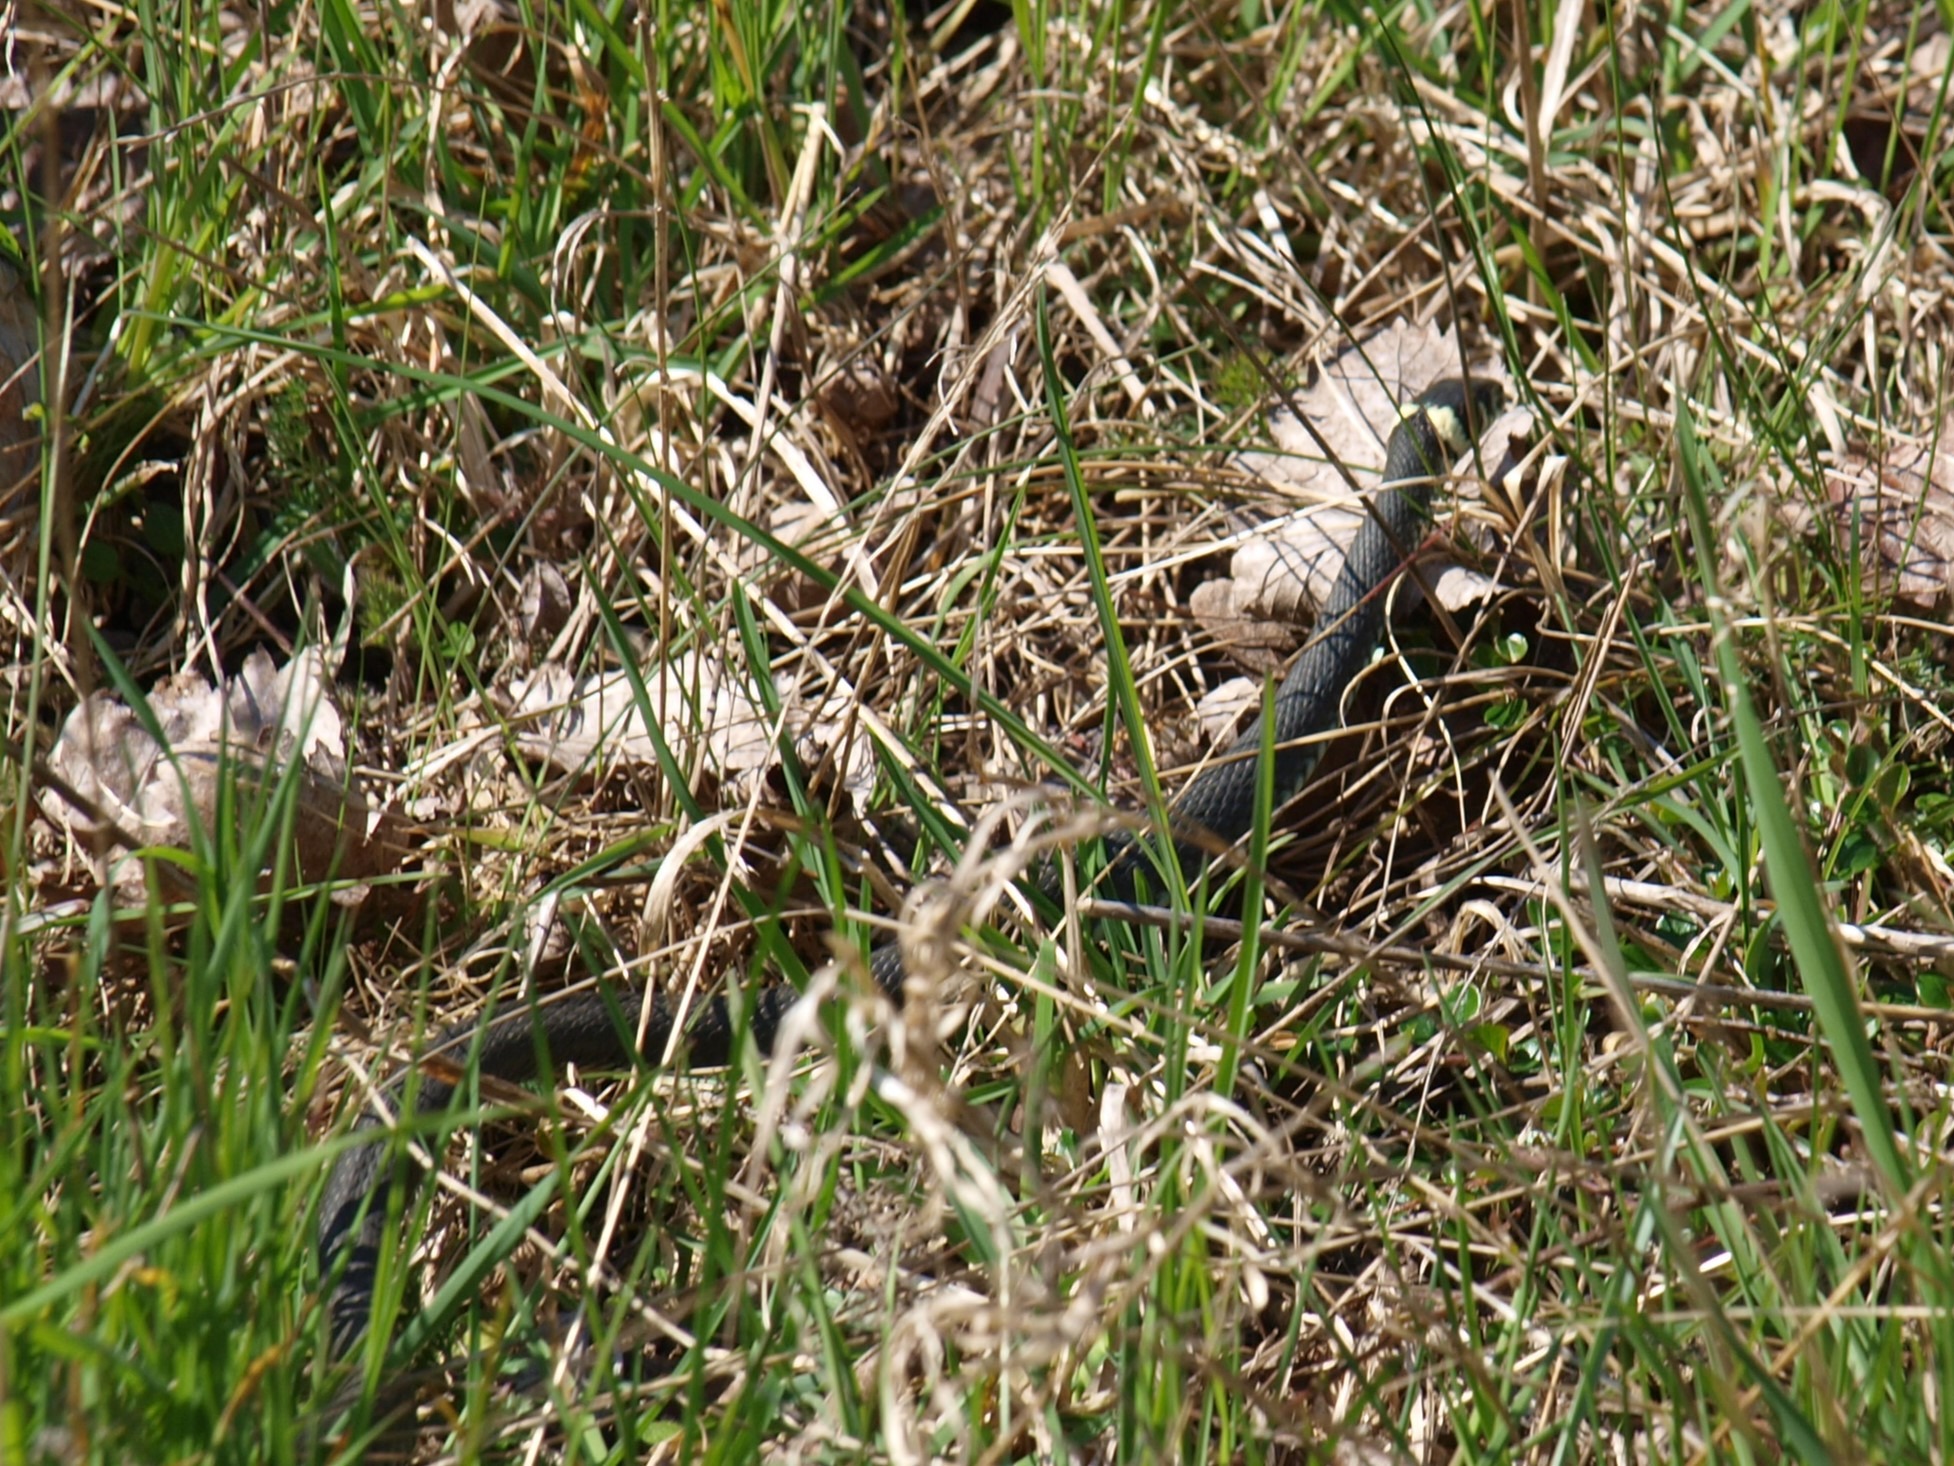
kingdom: Animalia
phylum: Chordata
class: Squamata
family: Colubridae
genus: Natrix
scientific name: Natrix natrix
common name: Snog
